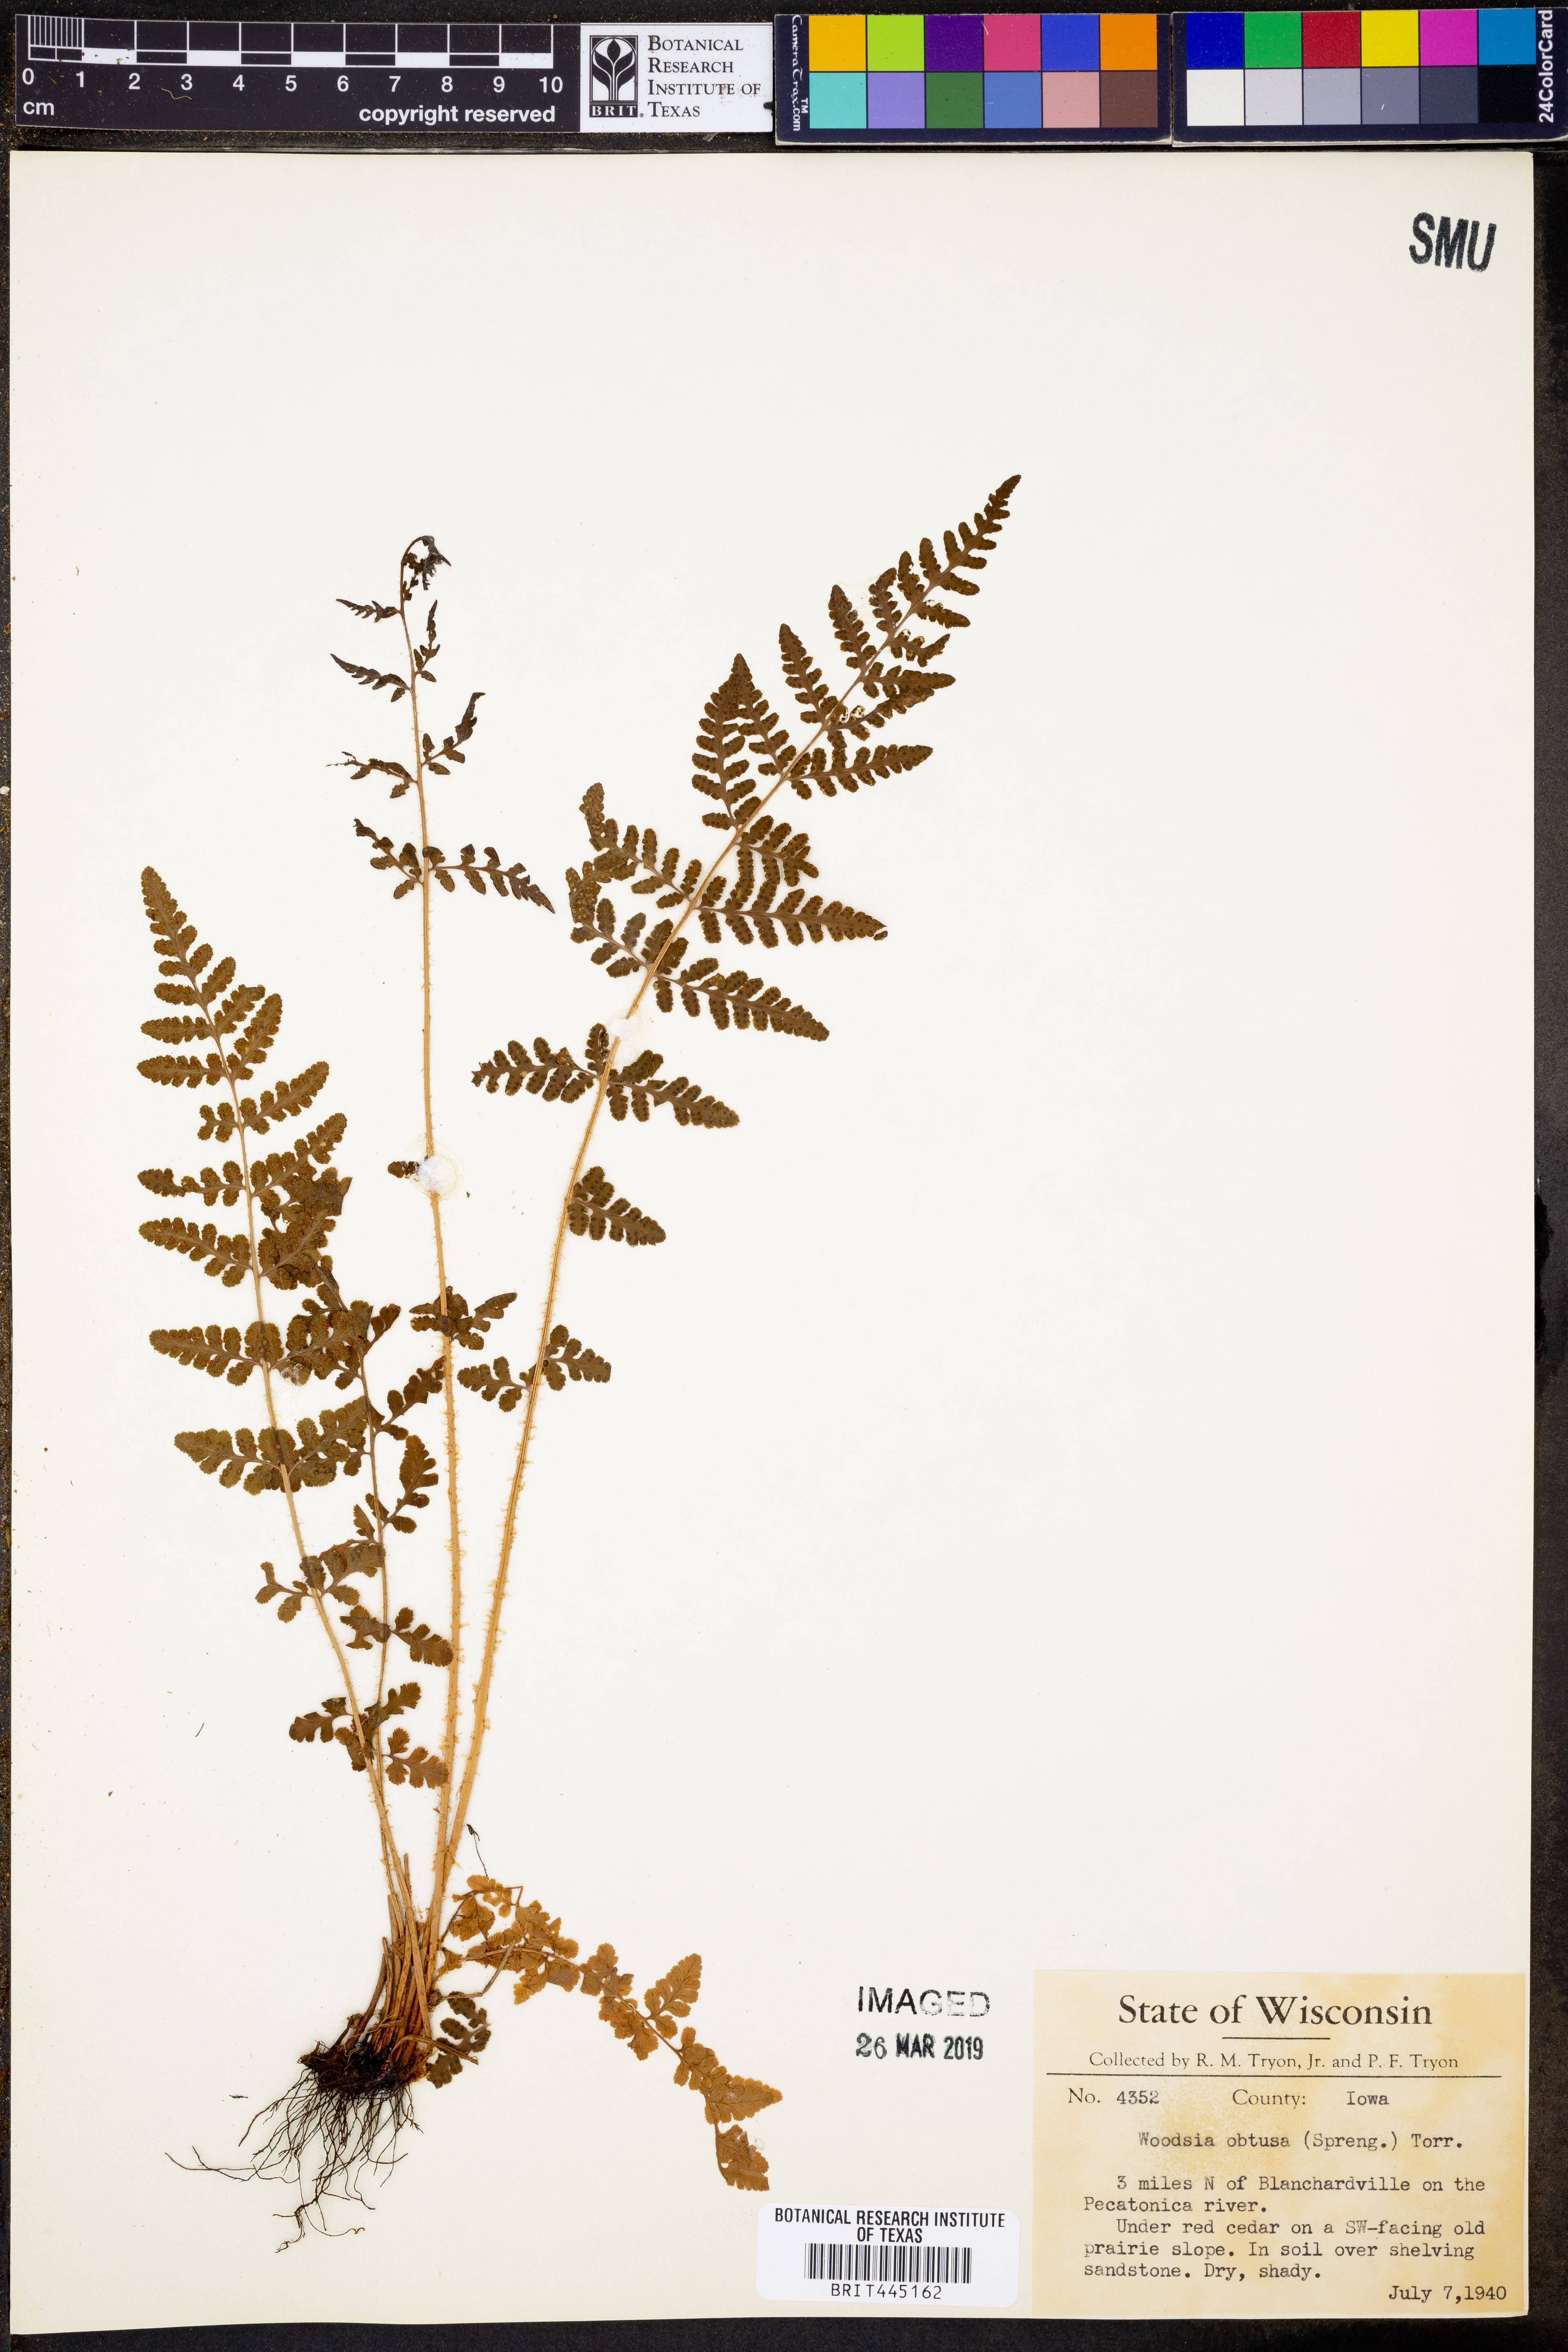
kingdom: Plantae
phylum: Tracheophyta
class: Polypodiopsida
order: Polypodiales
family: Woodsiaceae
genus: Physematium
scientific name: Physematium obtusum
